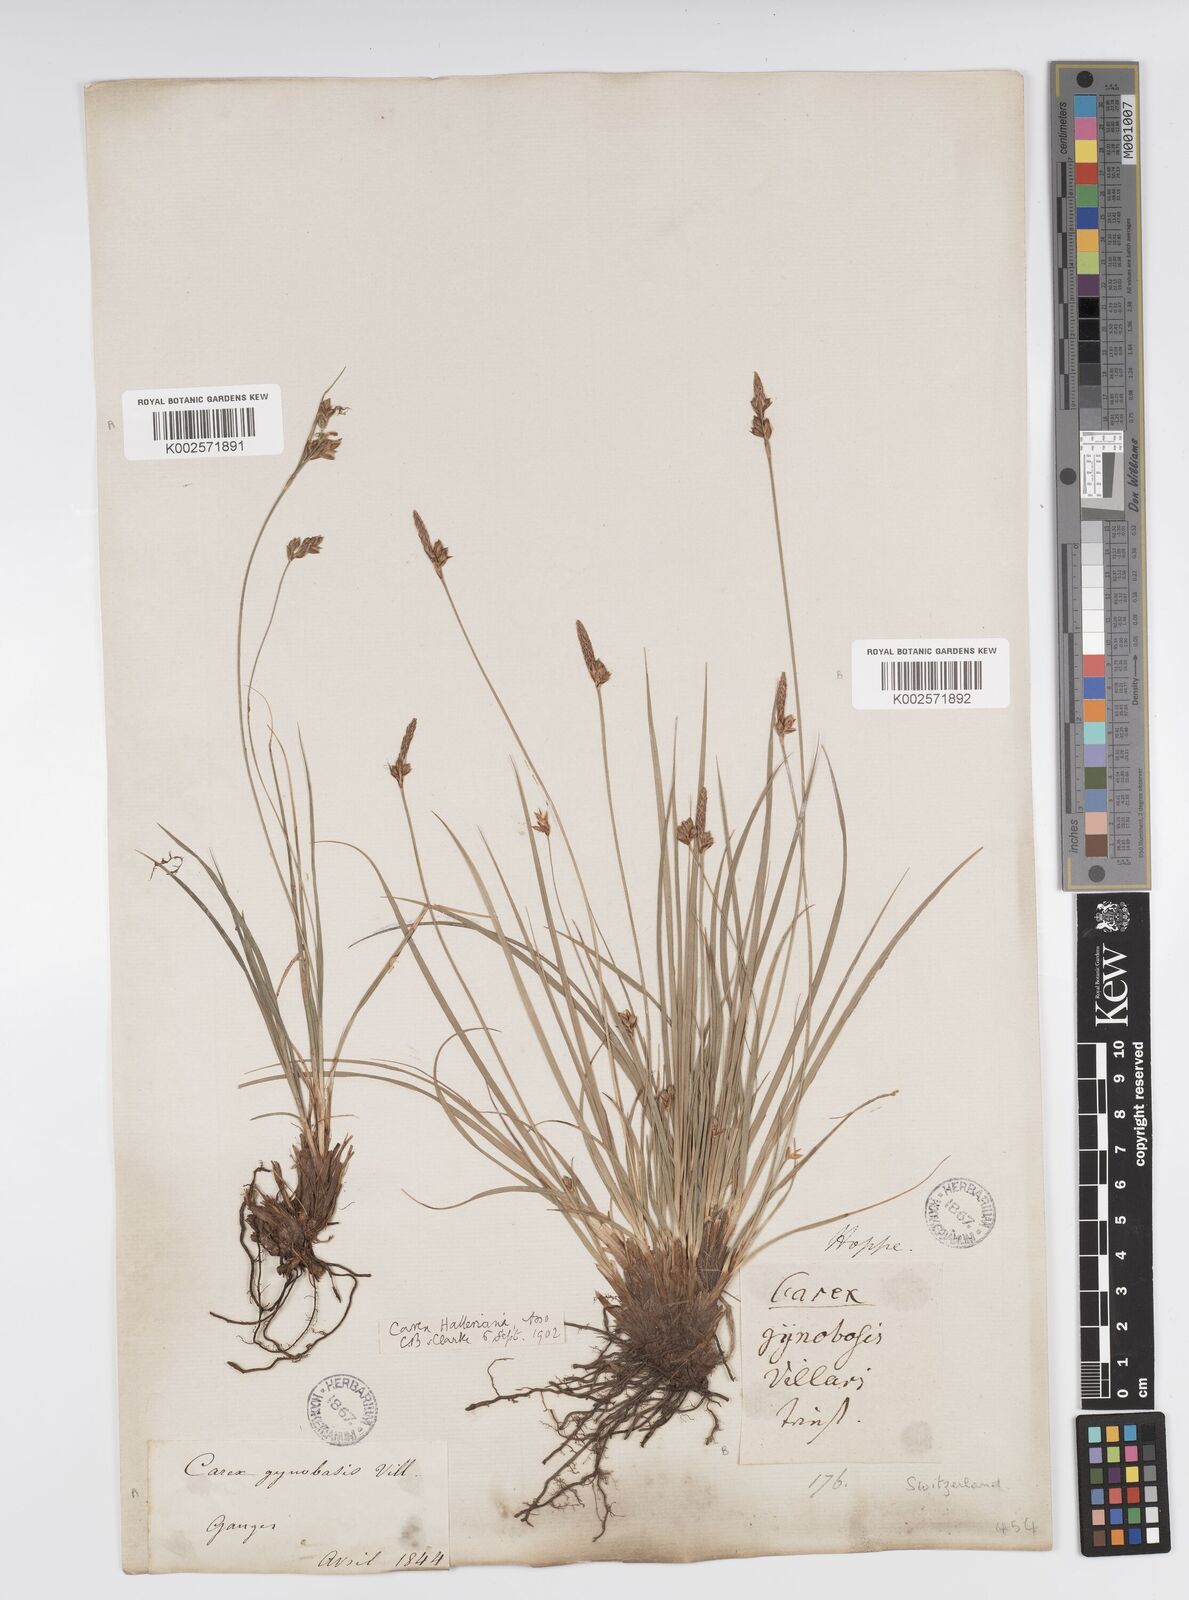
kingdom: Plantae
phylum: Tracheophyta
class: Liliopsida
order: Poales
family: Cyperaceae
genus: Carex
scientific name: Carex halleriana
